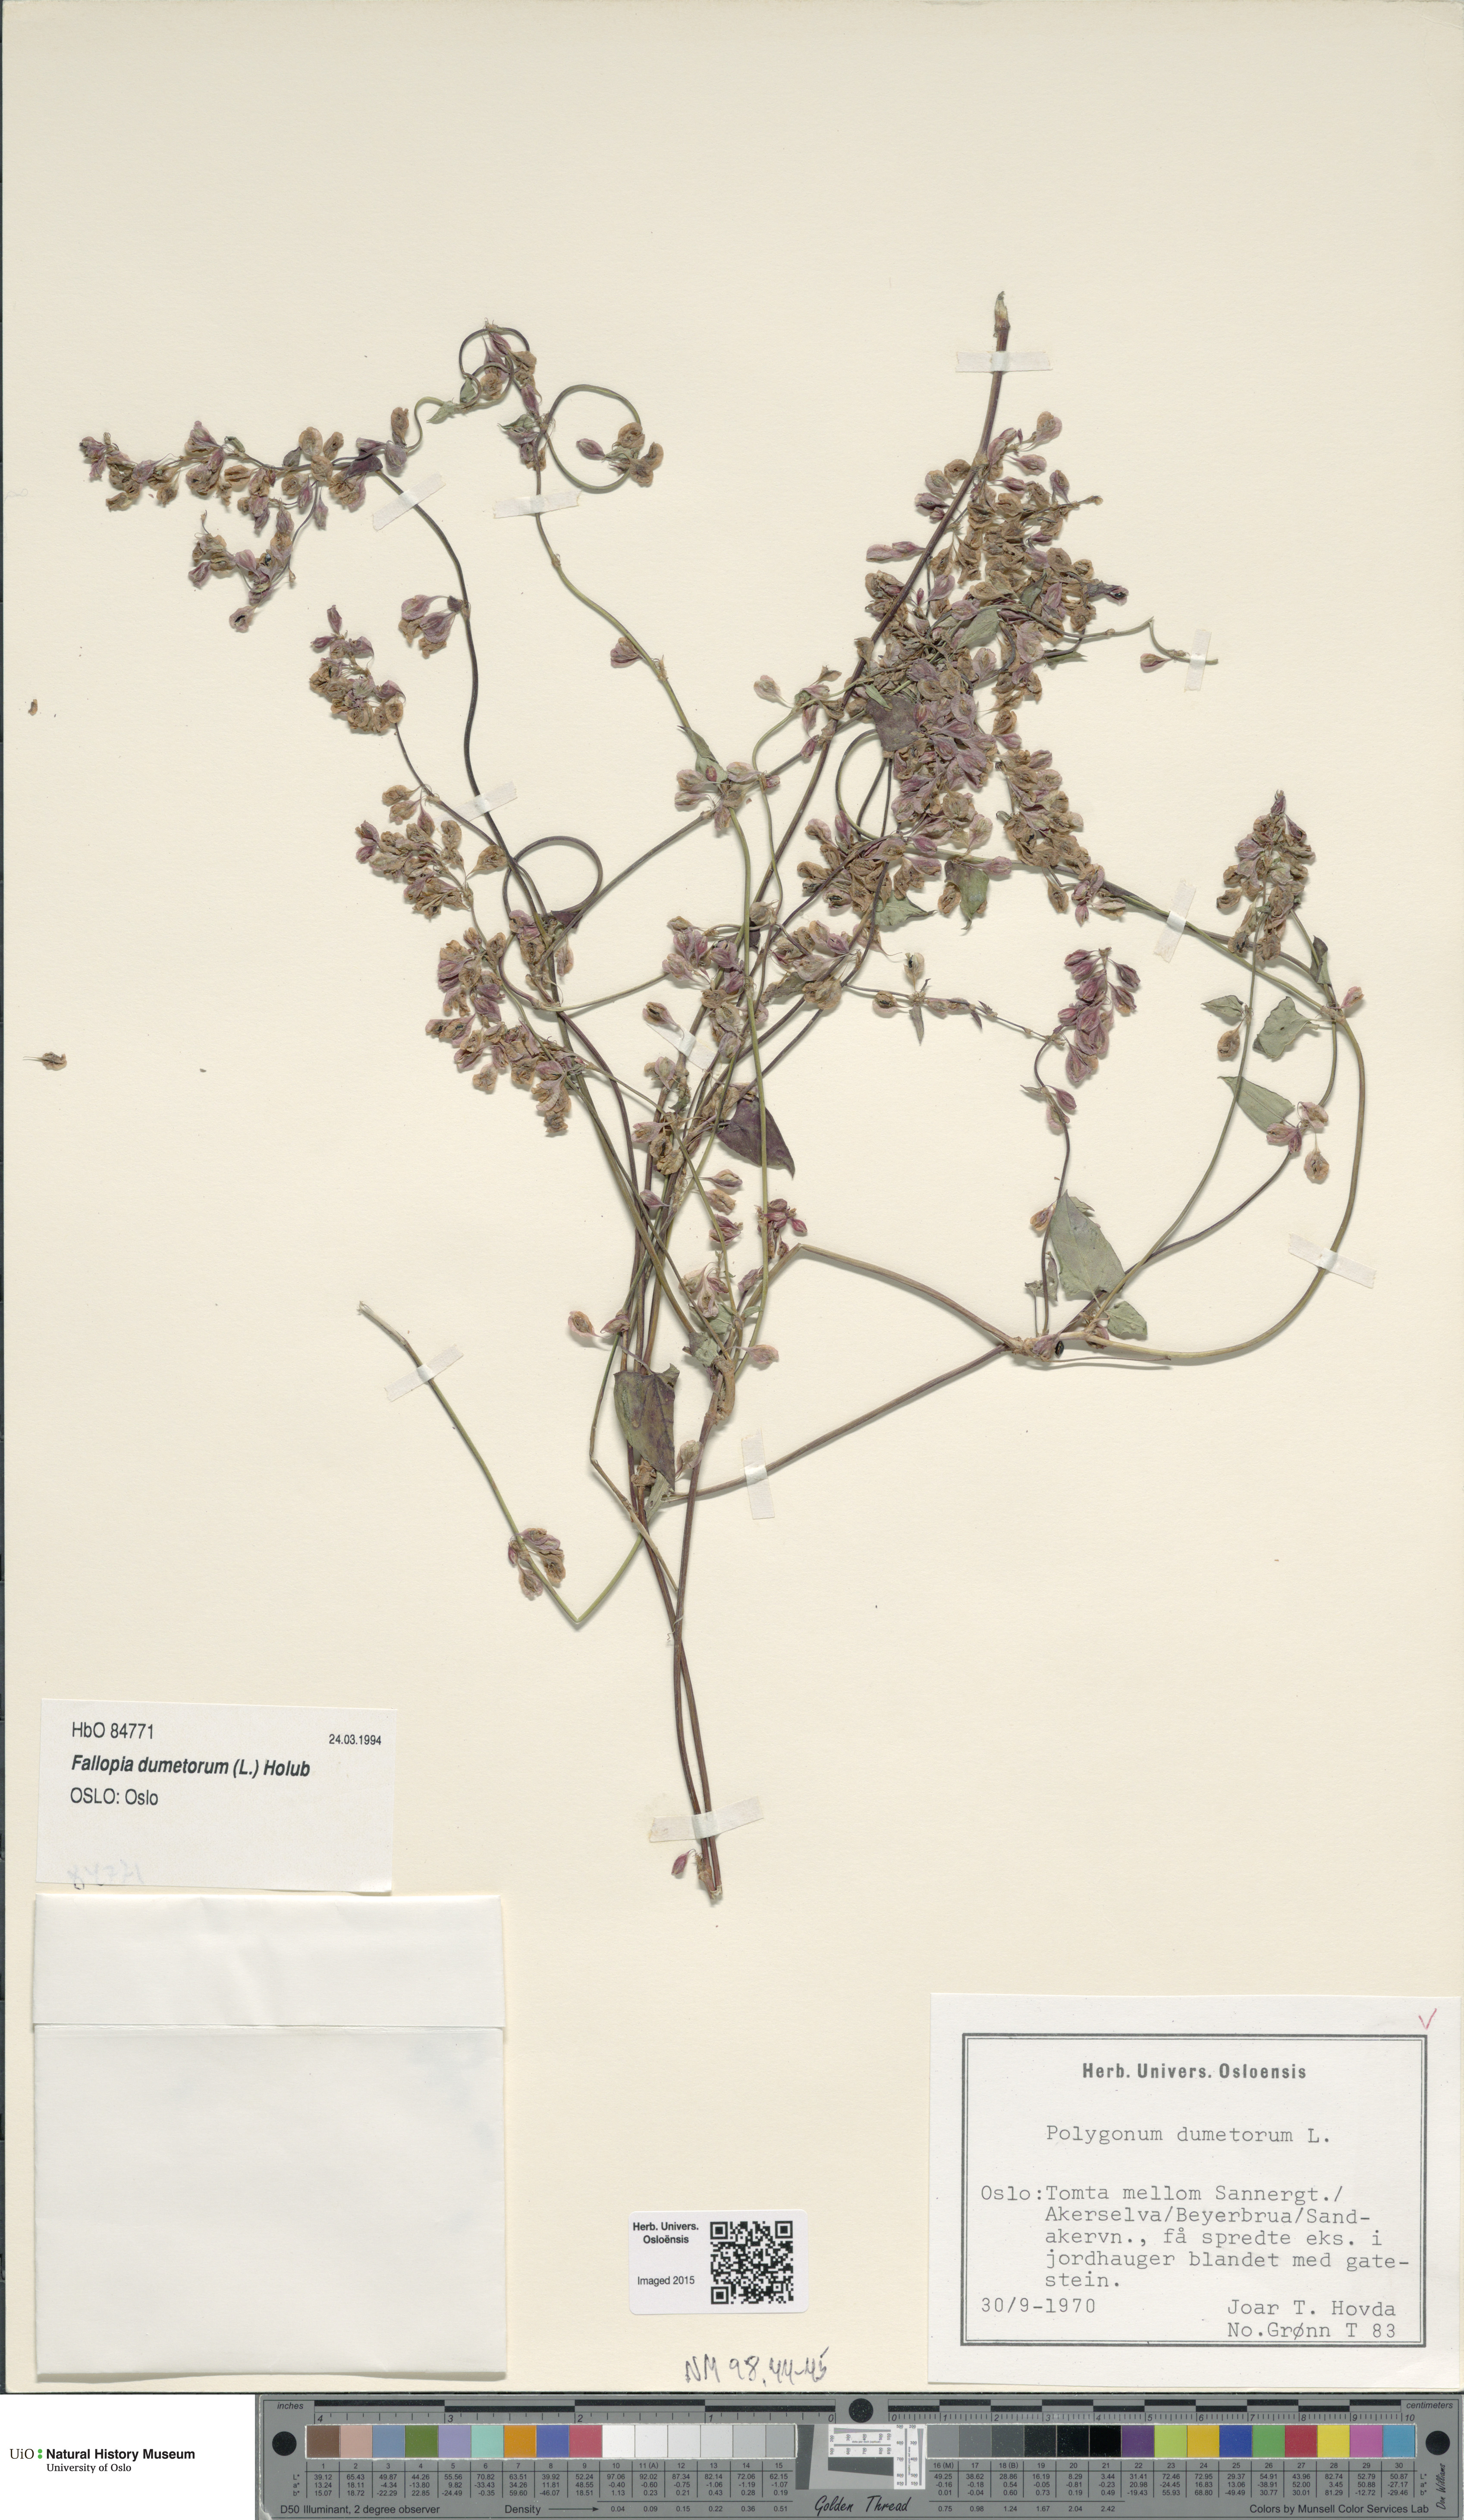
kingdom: Plantae
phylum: Tracheophyta
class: Magnoliopsida
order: Caryophyllales
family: Polygonaceae
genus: Fallopia
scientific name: Fallopia dumetorum
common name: Copse-bindweed
